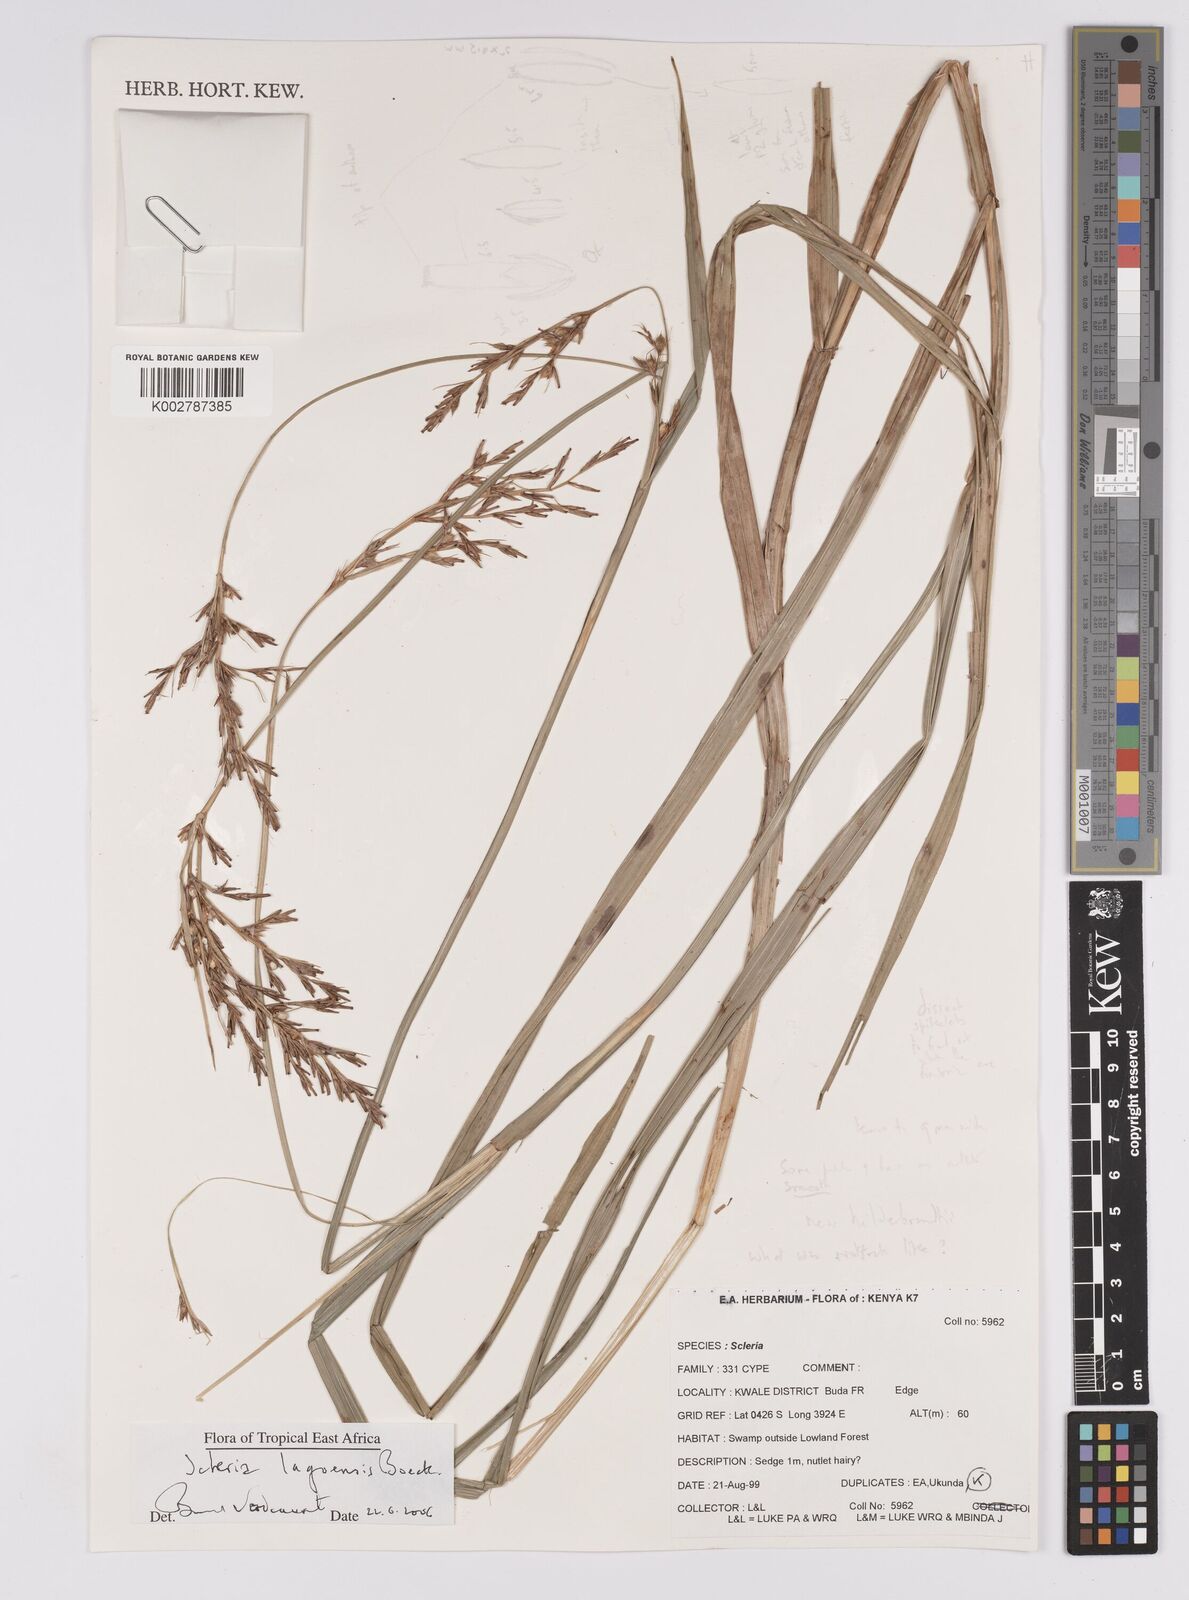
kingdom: Plantae
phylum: Tracheophyta
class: Liliopsida
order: Poales
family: Cyperaceae
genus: Scleria
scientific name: Scleria lagoensis
